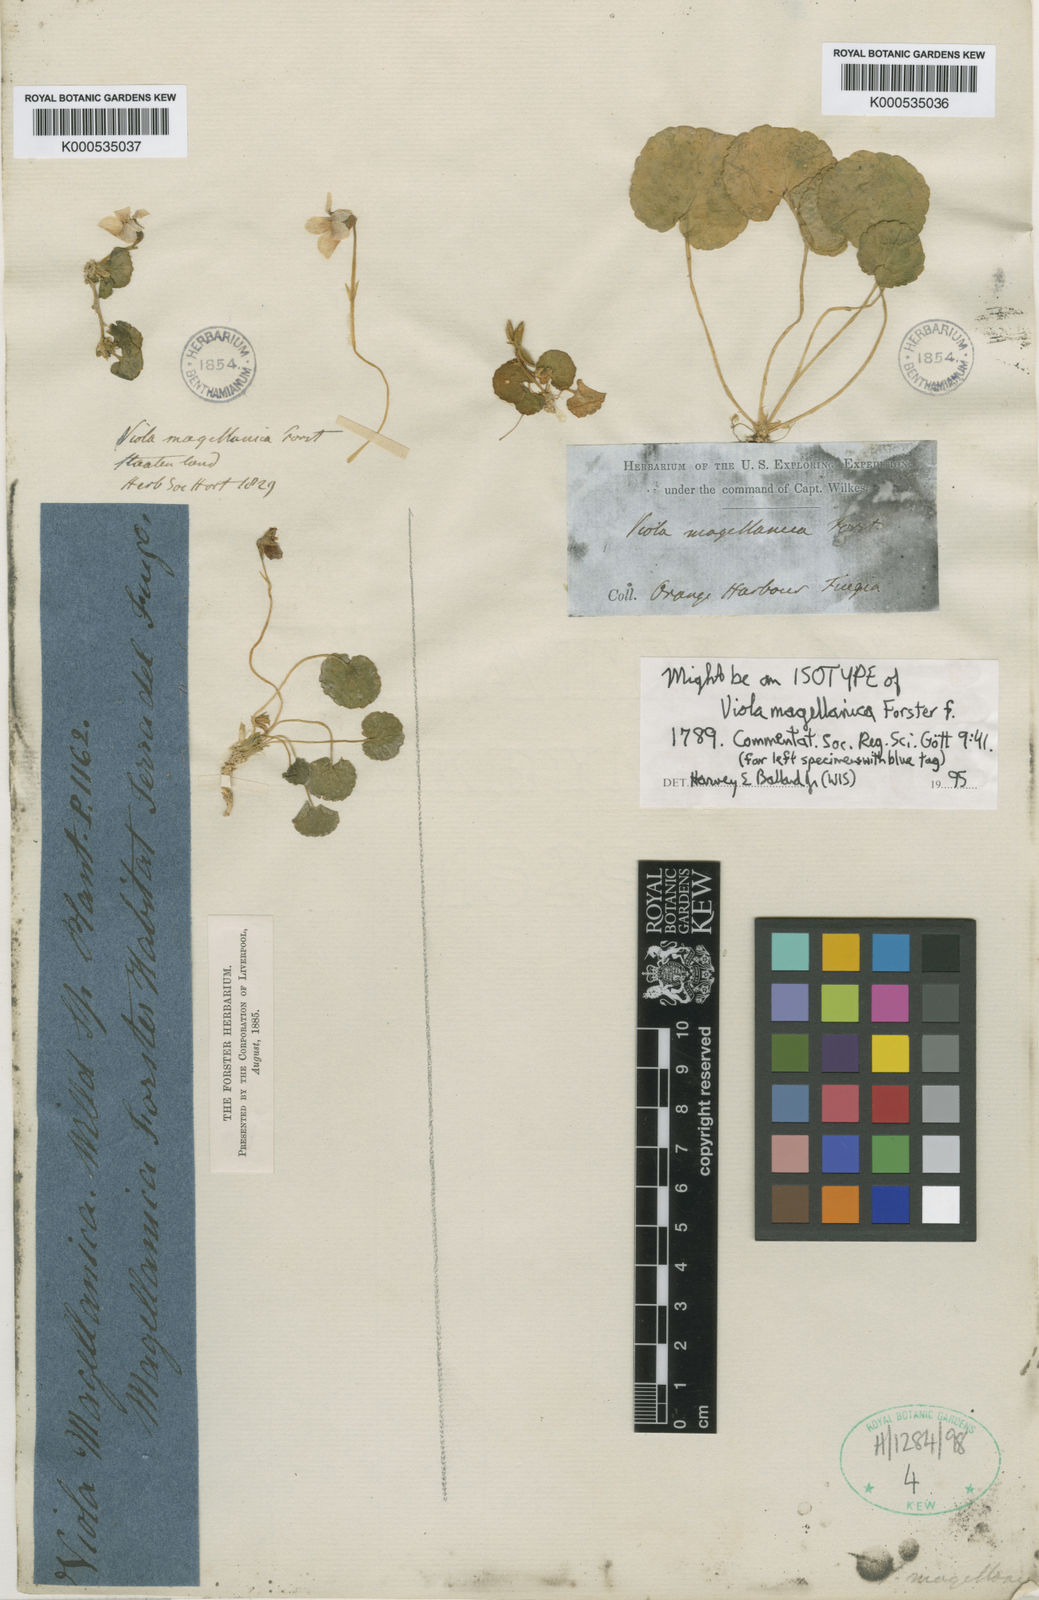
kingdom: Plantae
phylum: Tracheophyta
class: Magnoliopsida
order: Malpighiales
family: Violaceae
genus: Viola
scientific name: Viola magellanica
